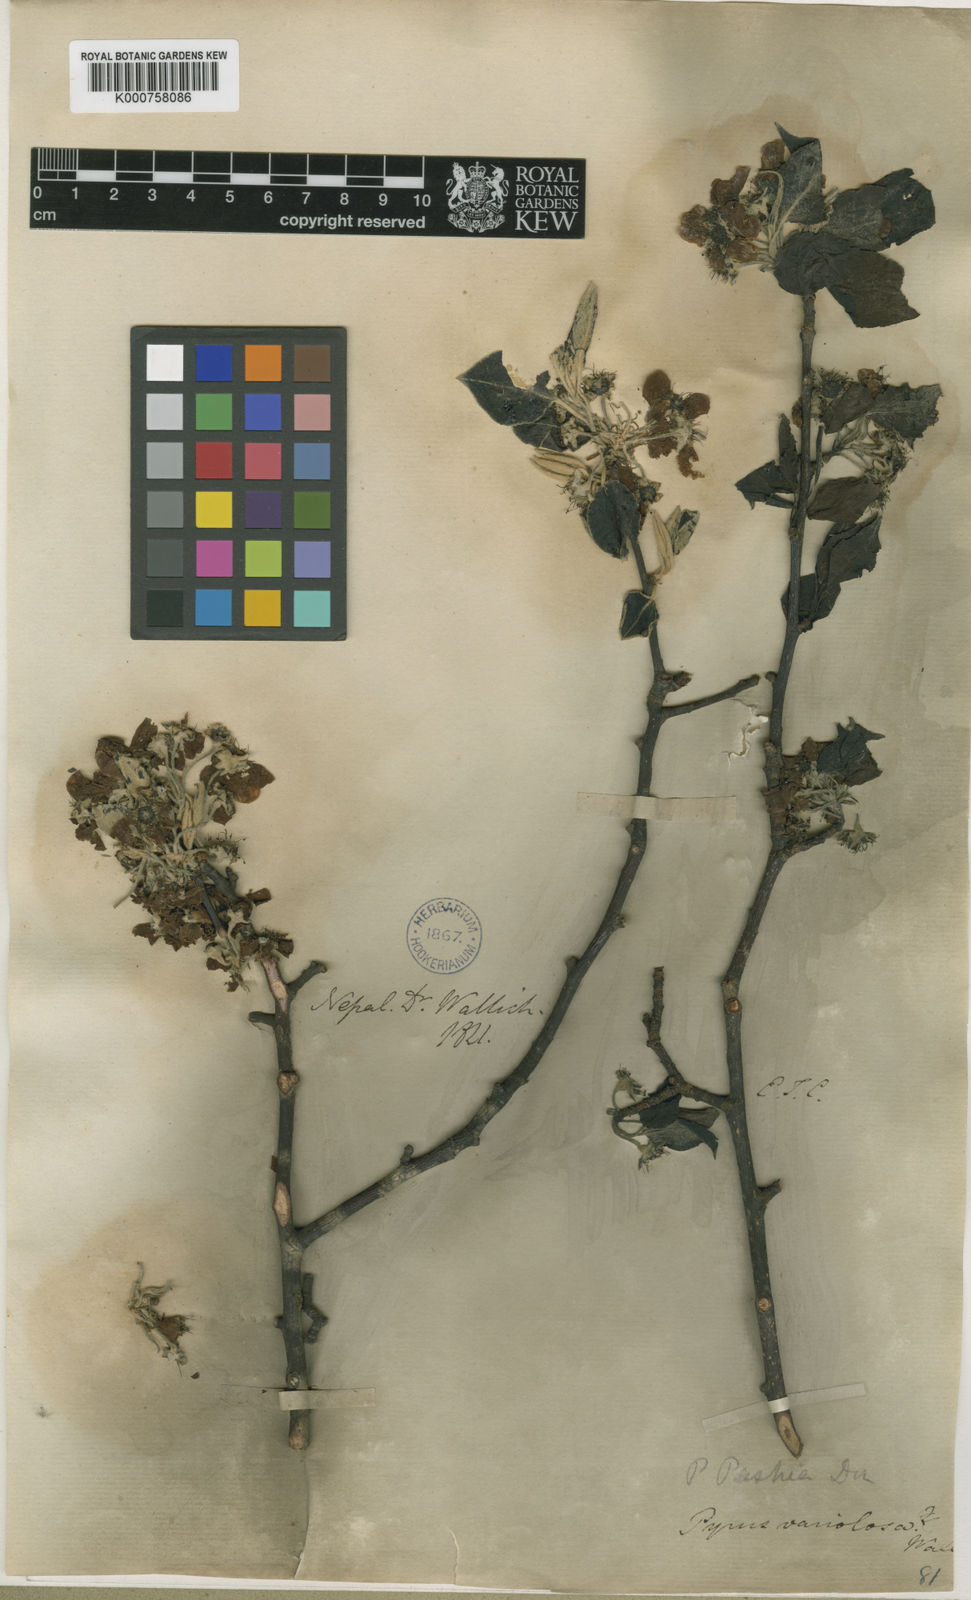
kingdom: Plantae
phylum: Tracheophyta
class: Magnoliopsida
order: Rosales
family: Rosaceae
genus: Pyrus
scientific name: Pyrus pashia
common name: Himalayan pear
